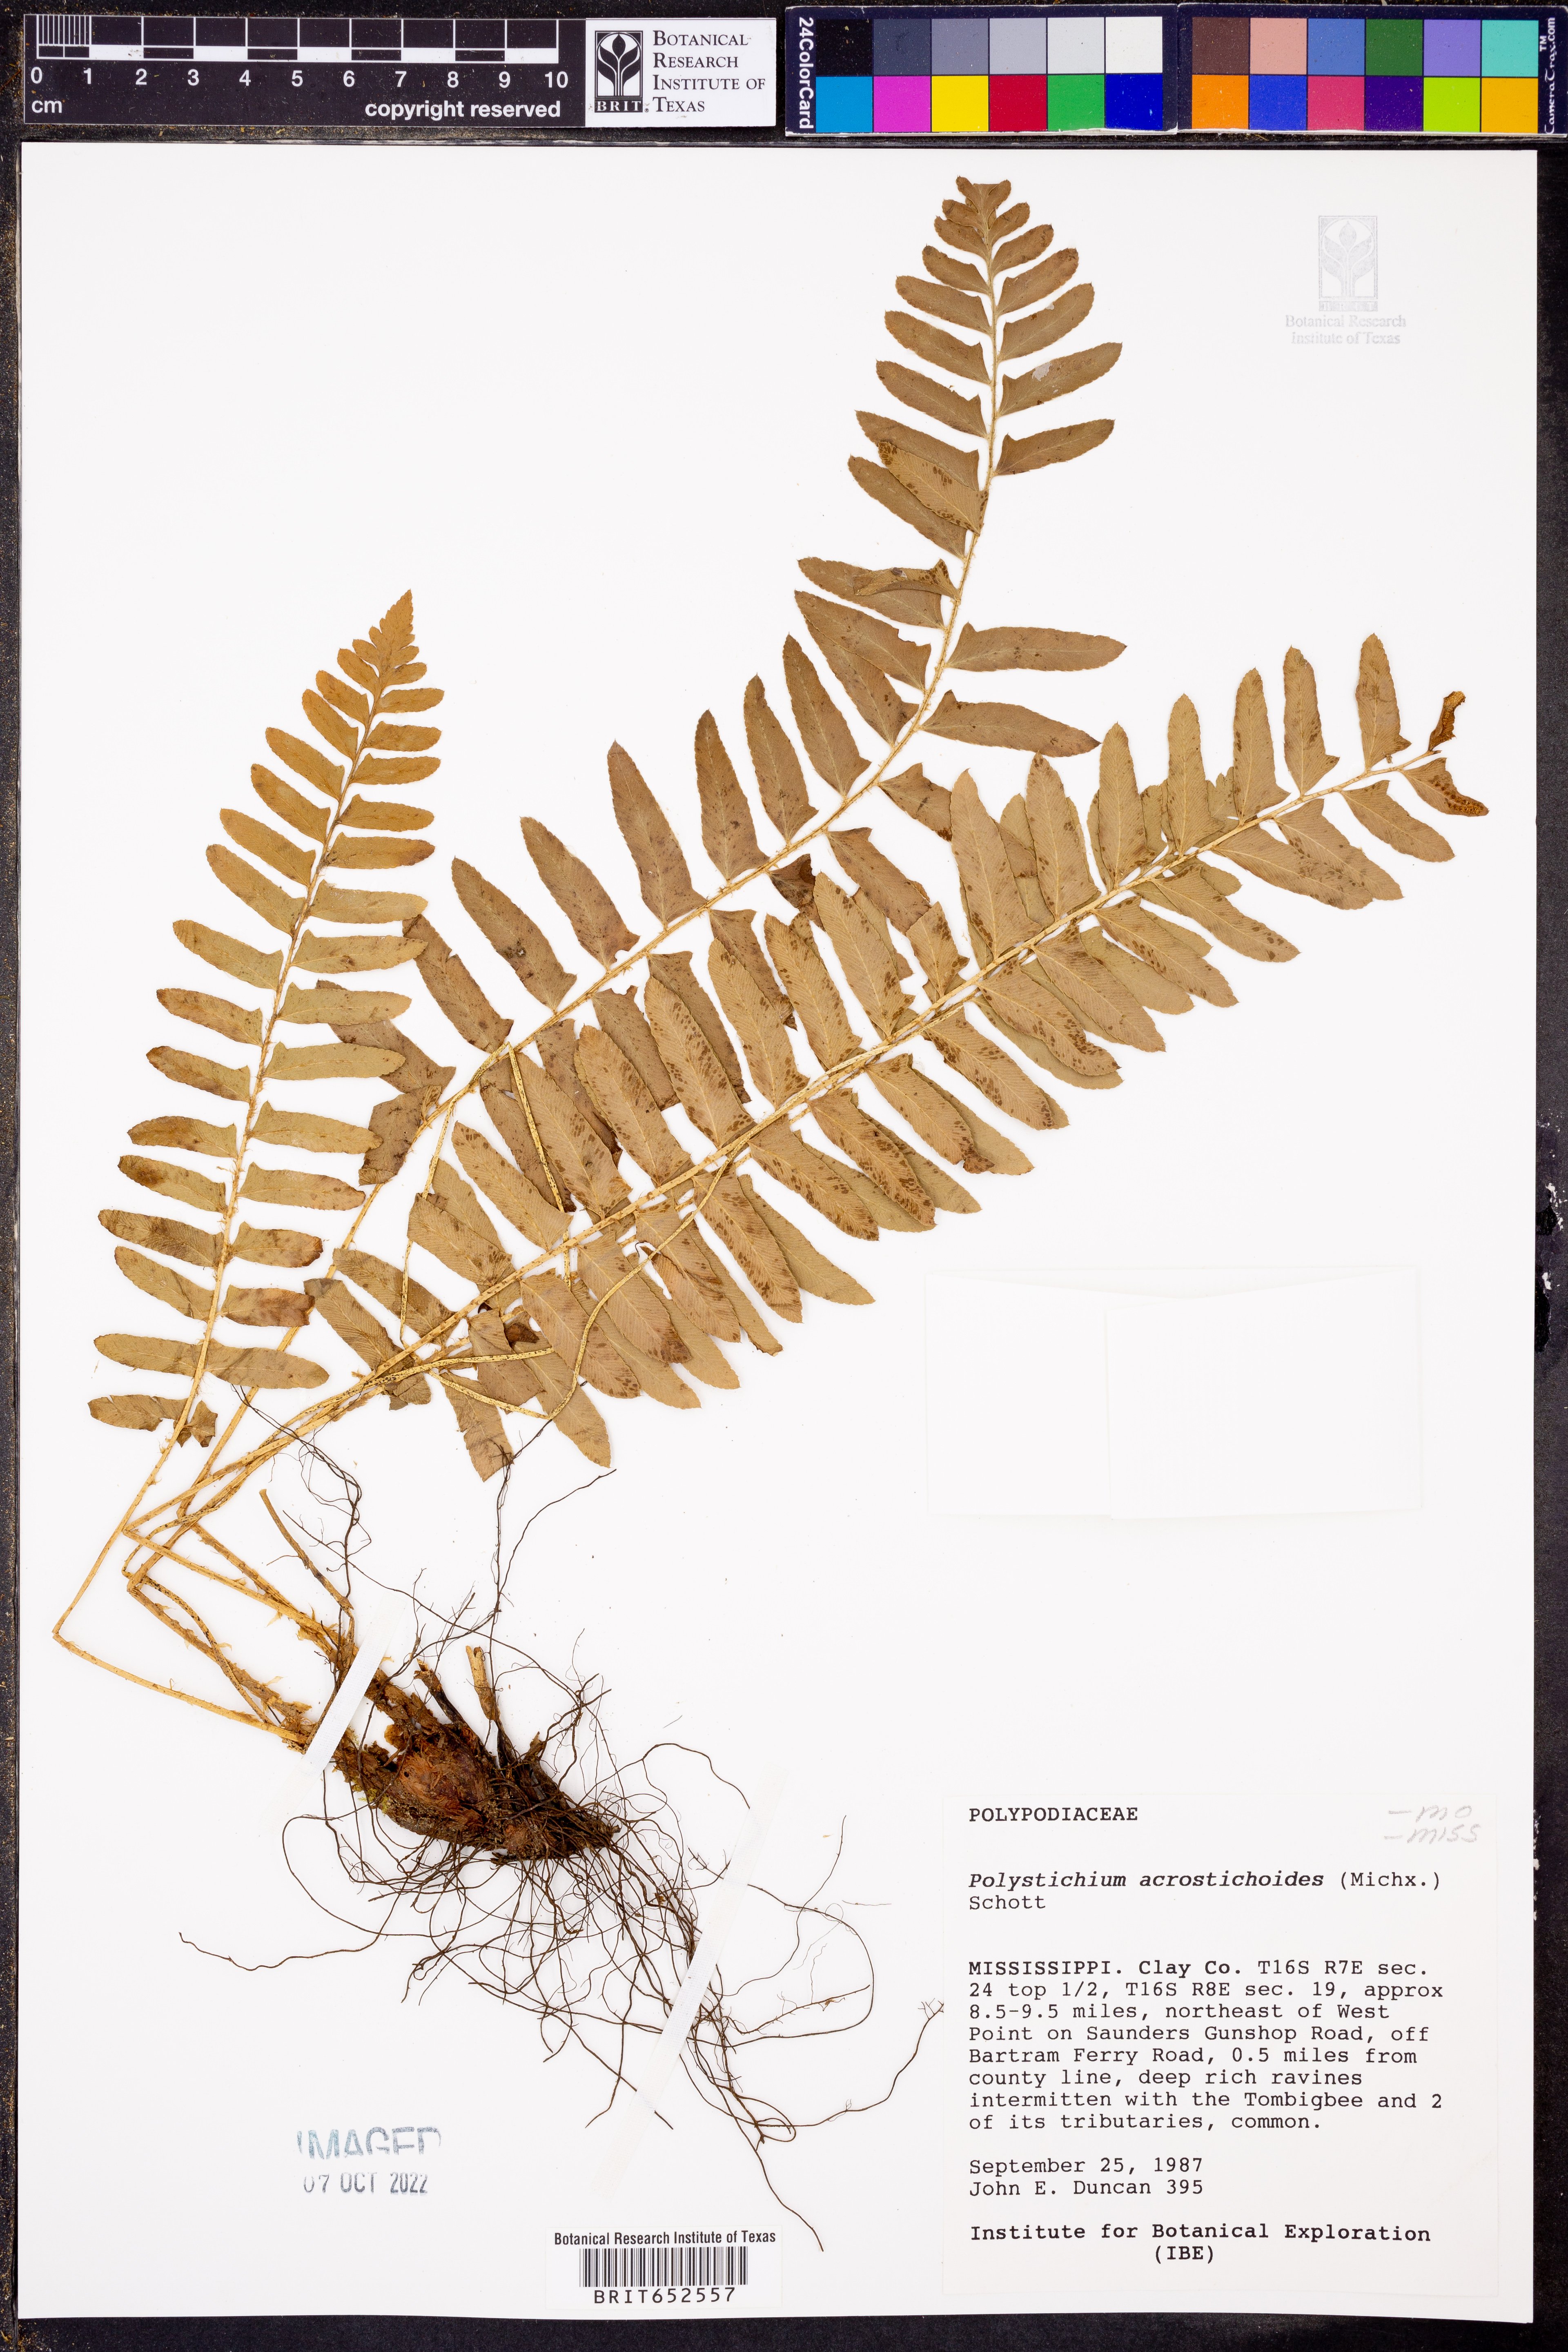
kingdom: Plantae
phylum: Tracheophyta
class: Polypodiopsida
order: Polypodiales
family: Dryopteridaceae
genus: Polystichum
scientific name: Polystichum acrostichoides
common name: Christmas fern
